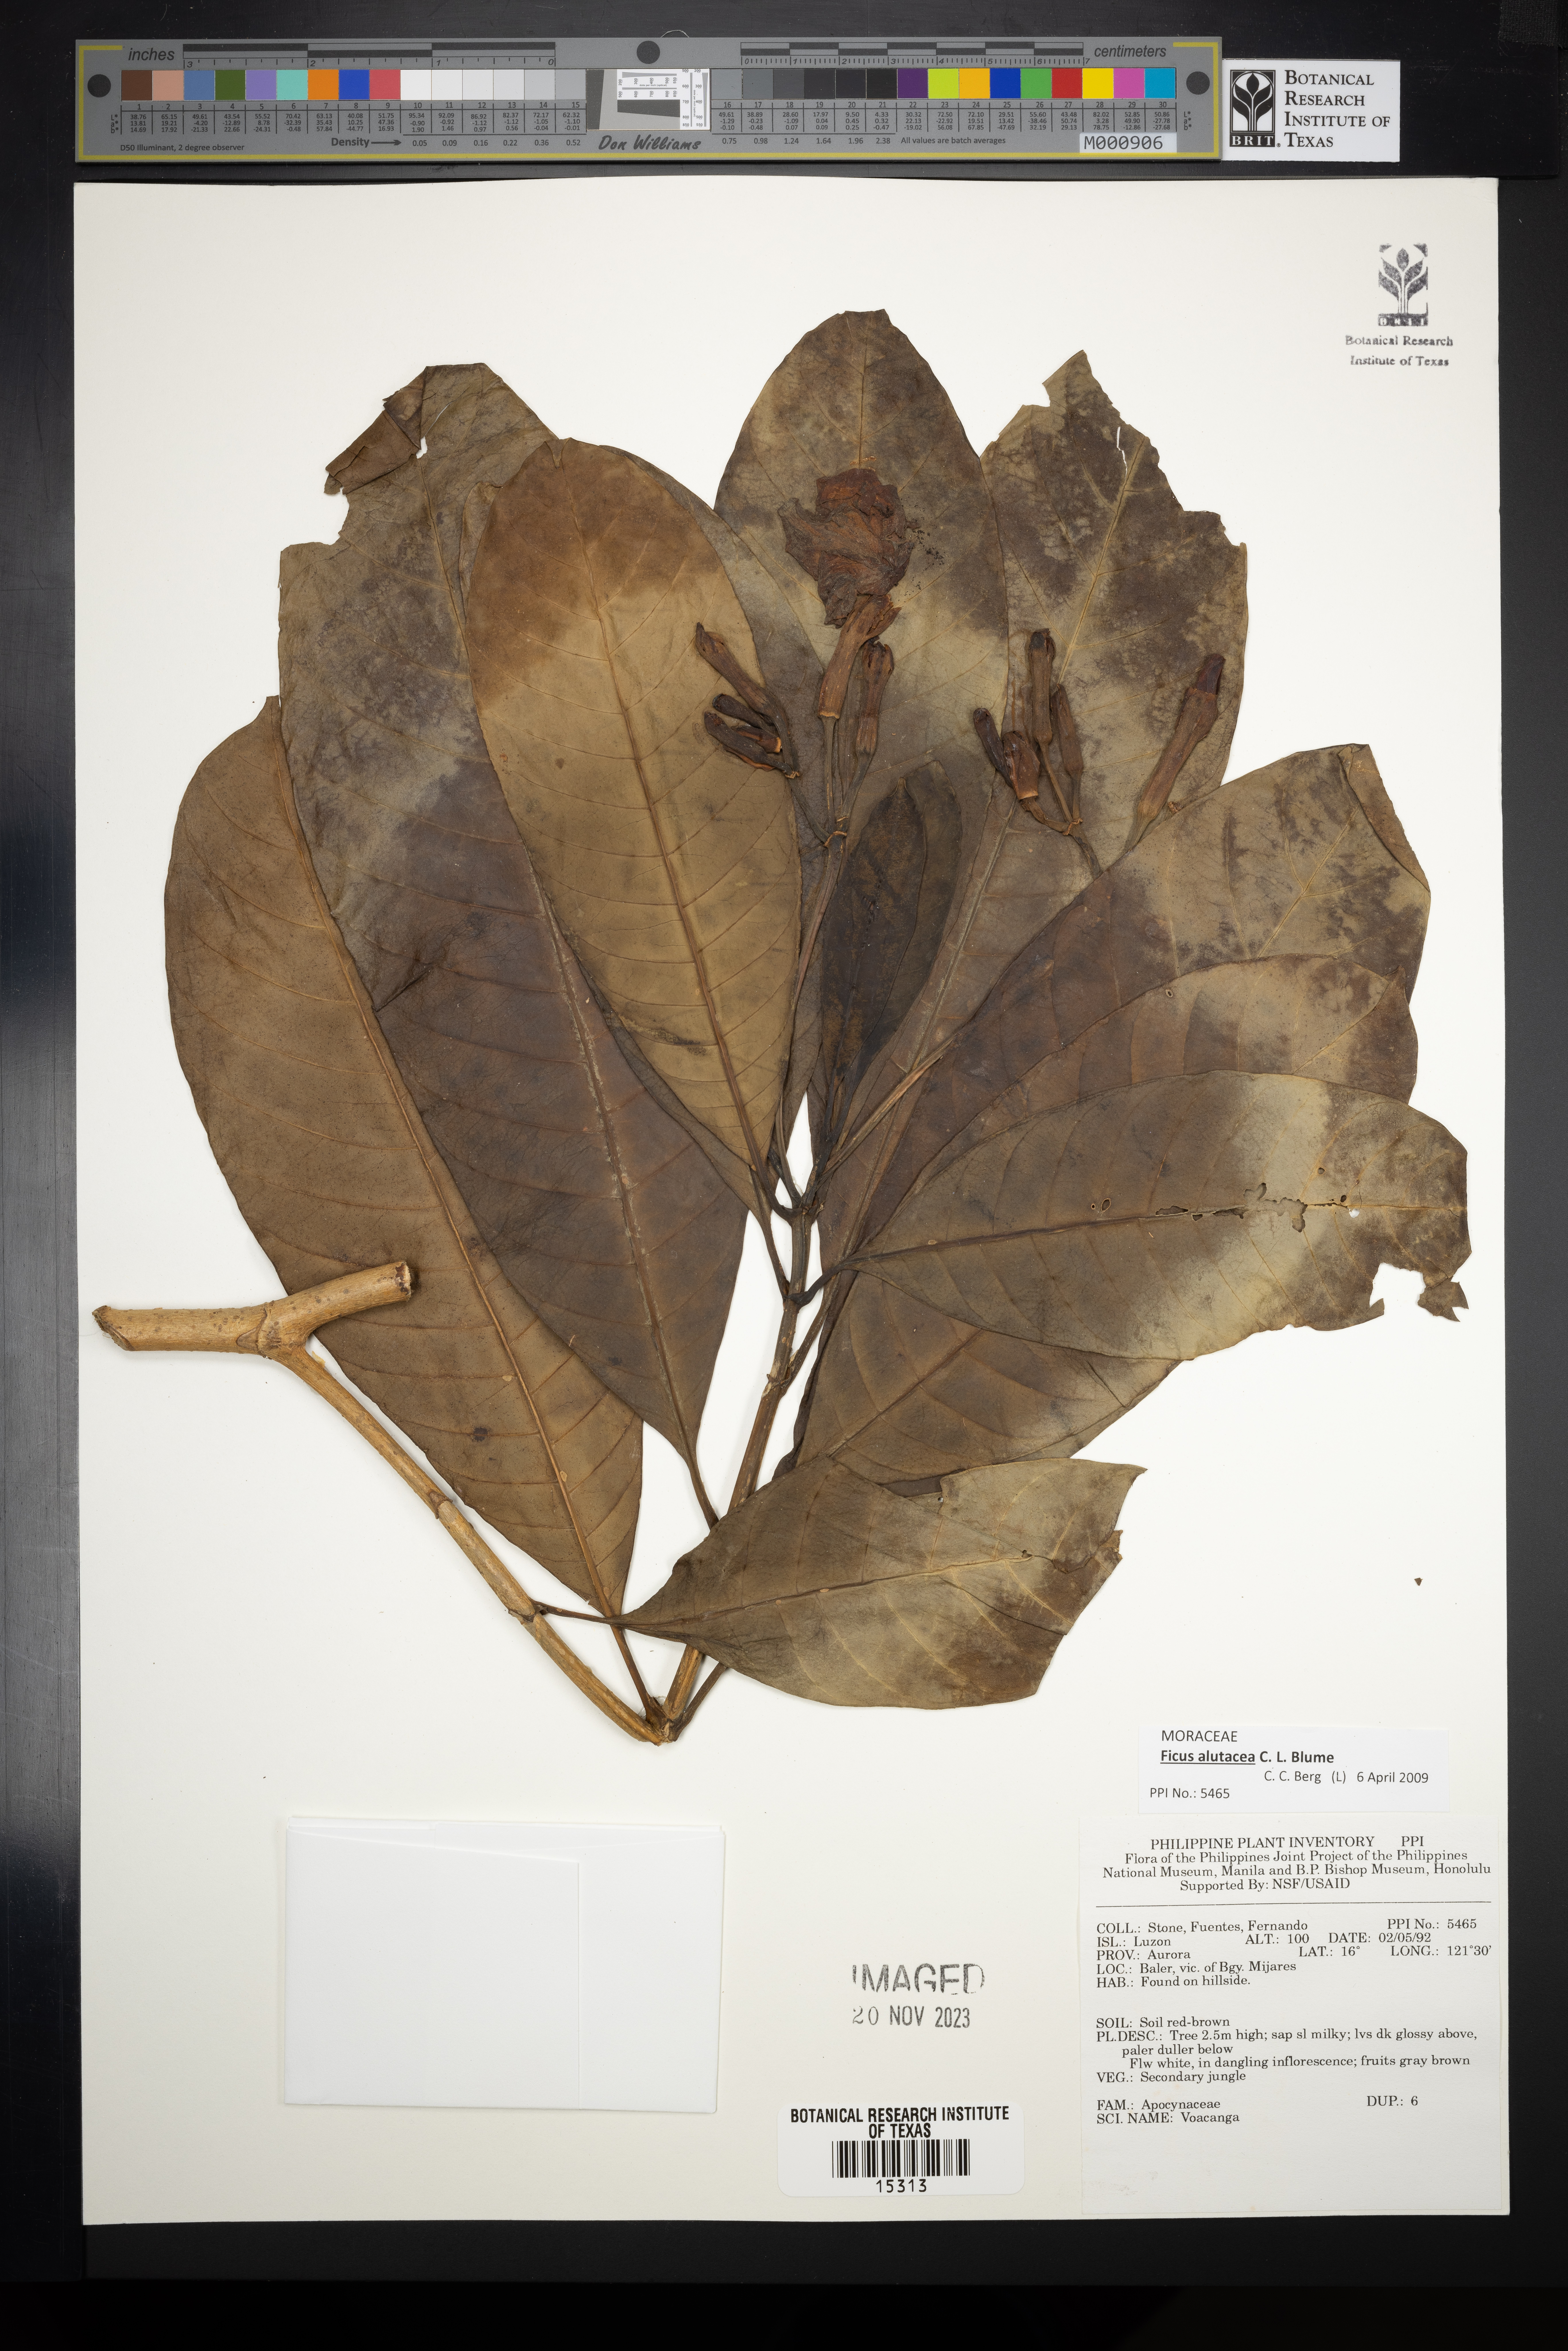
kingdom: Plantae
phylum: Tracheophyta
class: Magnoliopsida
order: Gentianales
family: Apocynaceae
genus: Voacanga
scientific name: Voacanga
